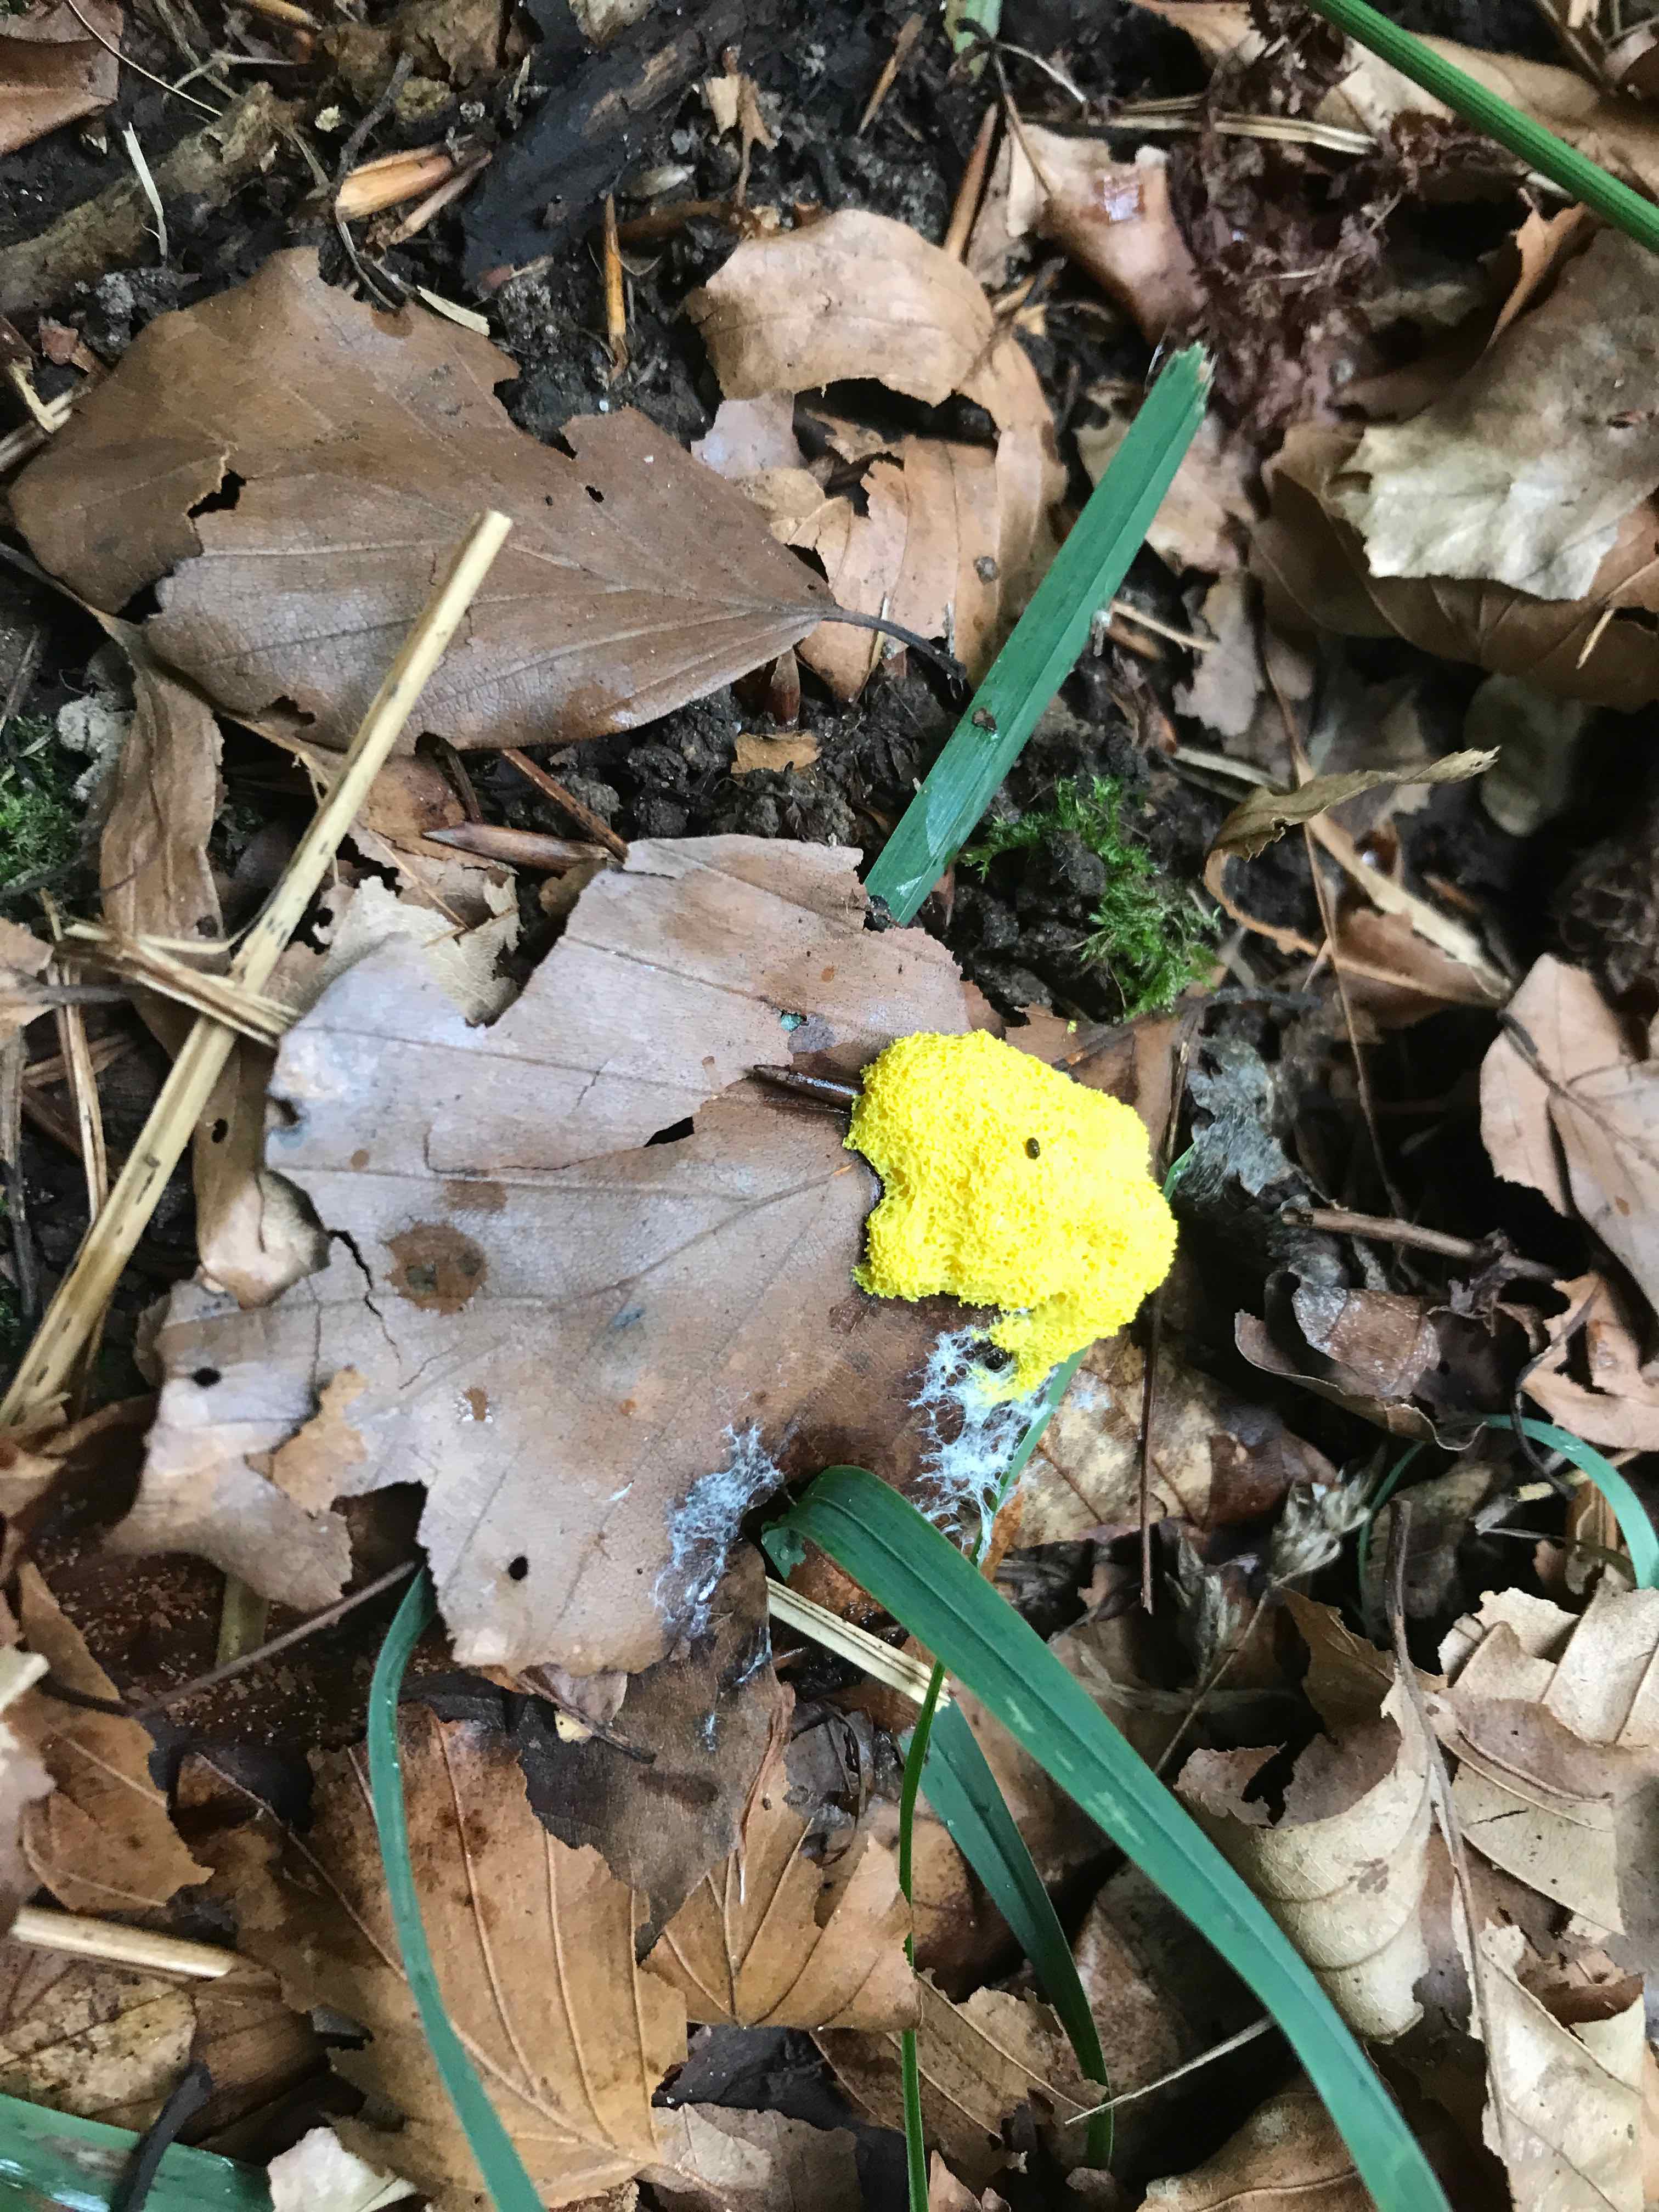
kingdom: Protozoa
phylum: Mycetozoa
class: Myxomycetes
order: Physarales
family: Physaraceae
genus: Fuligo
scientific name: Fuligo septica
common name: gul troldsmør
